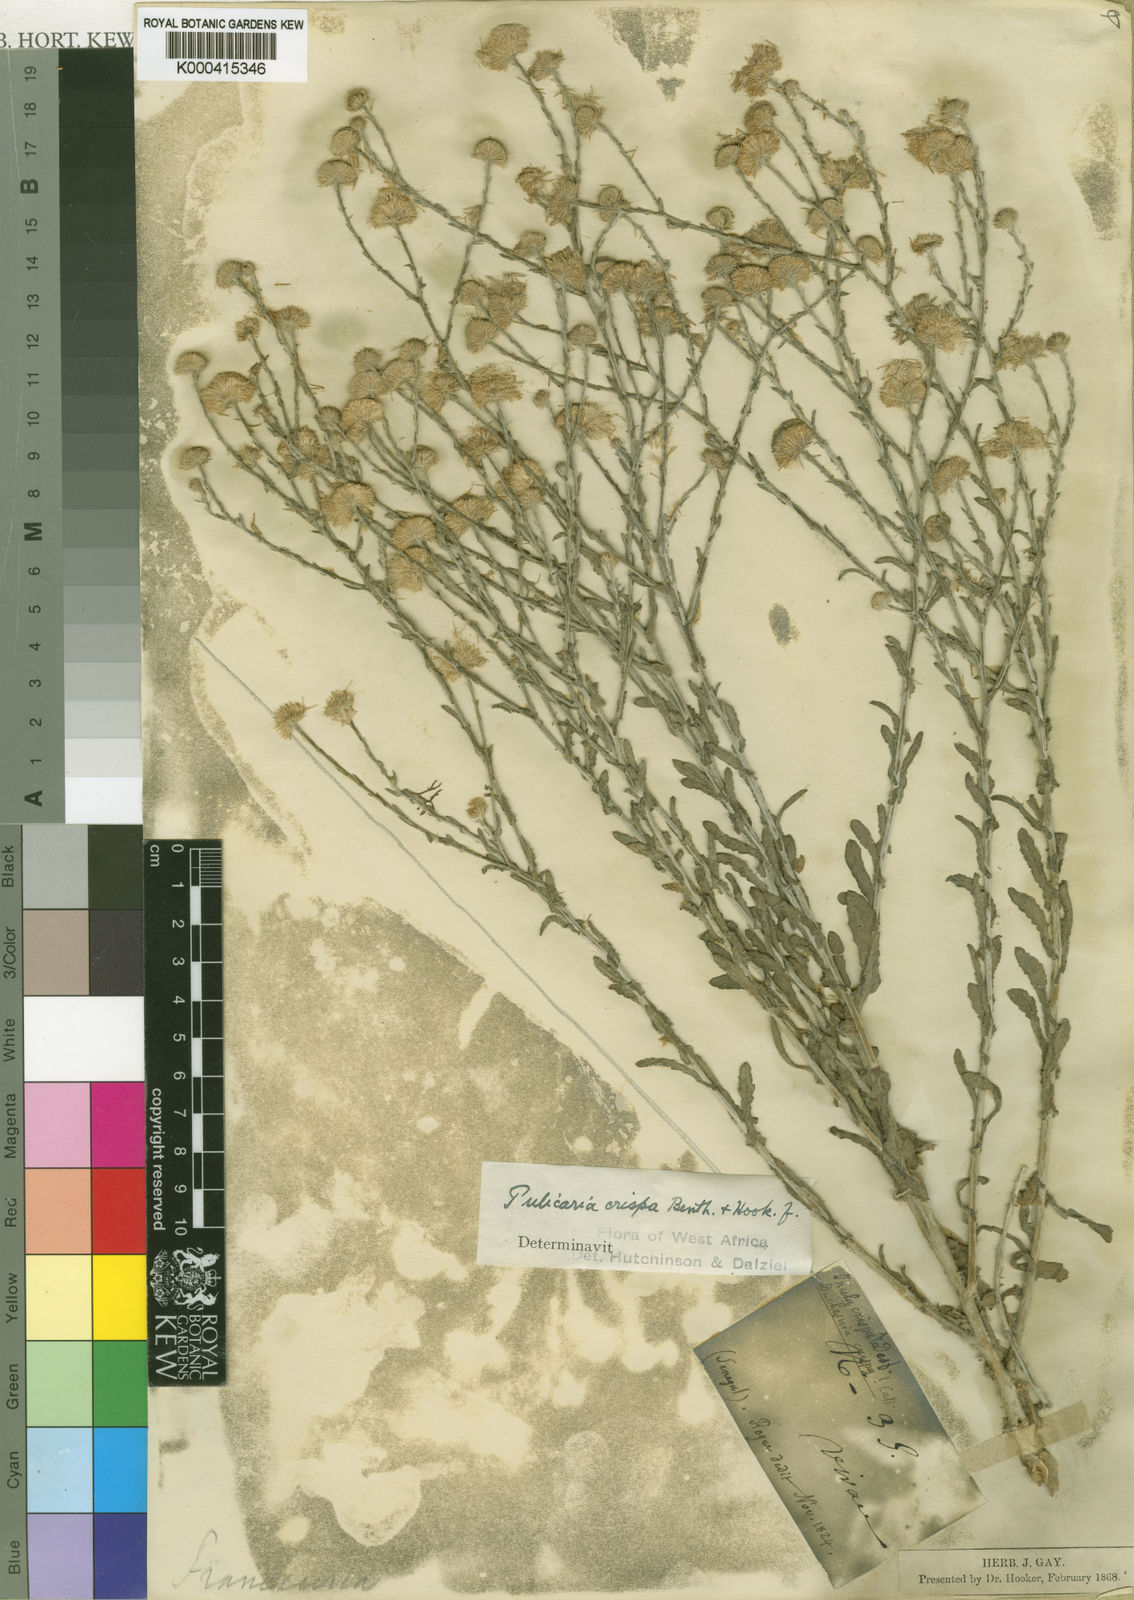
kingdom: Plantae
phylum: Tracheophyta
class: Magnoliopsida
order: Asterales
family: Asteraceae
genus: Pulicaria
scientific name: Pulicaria
